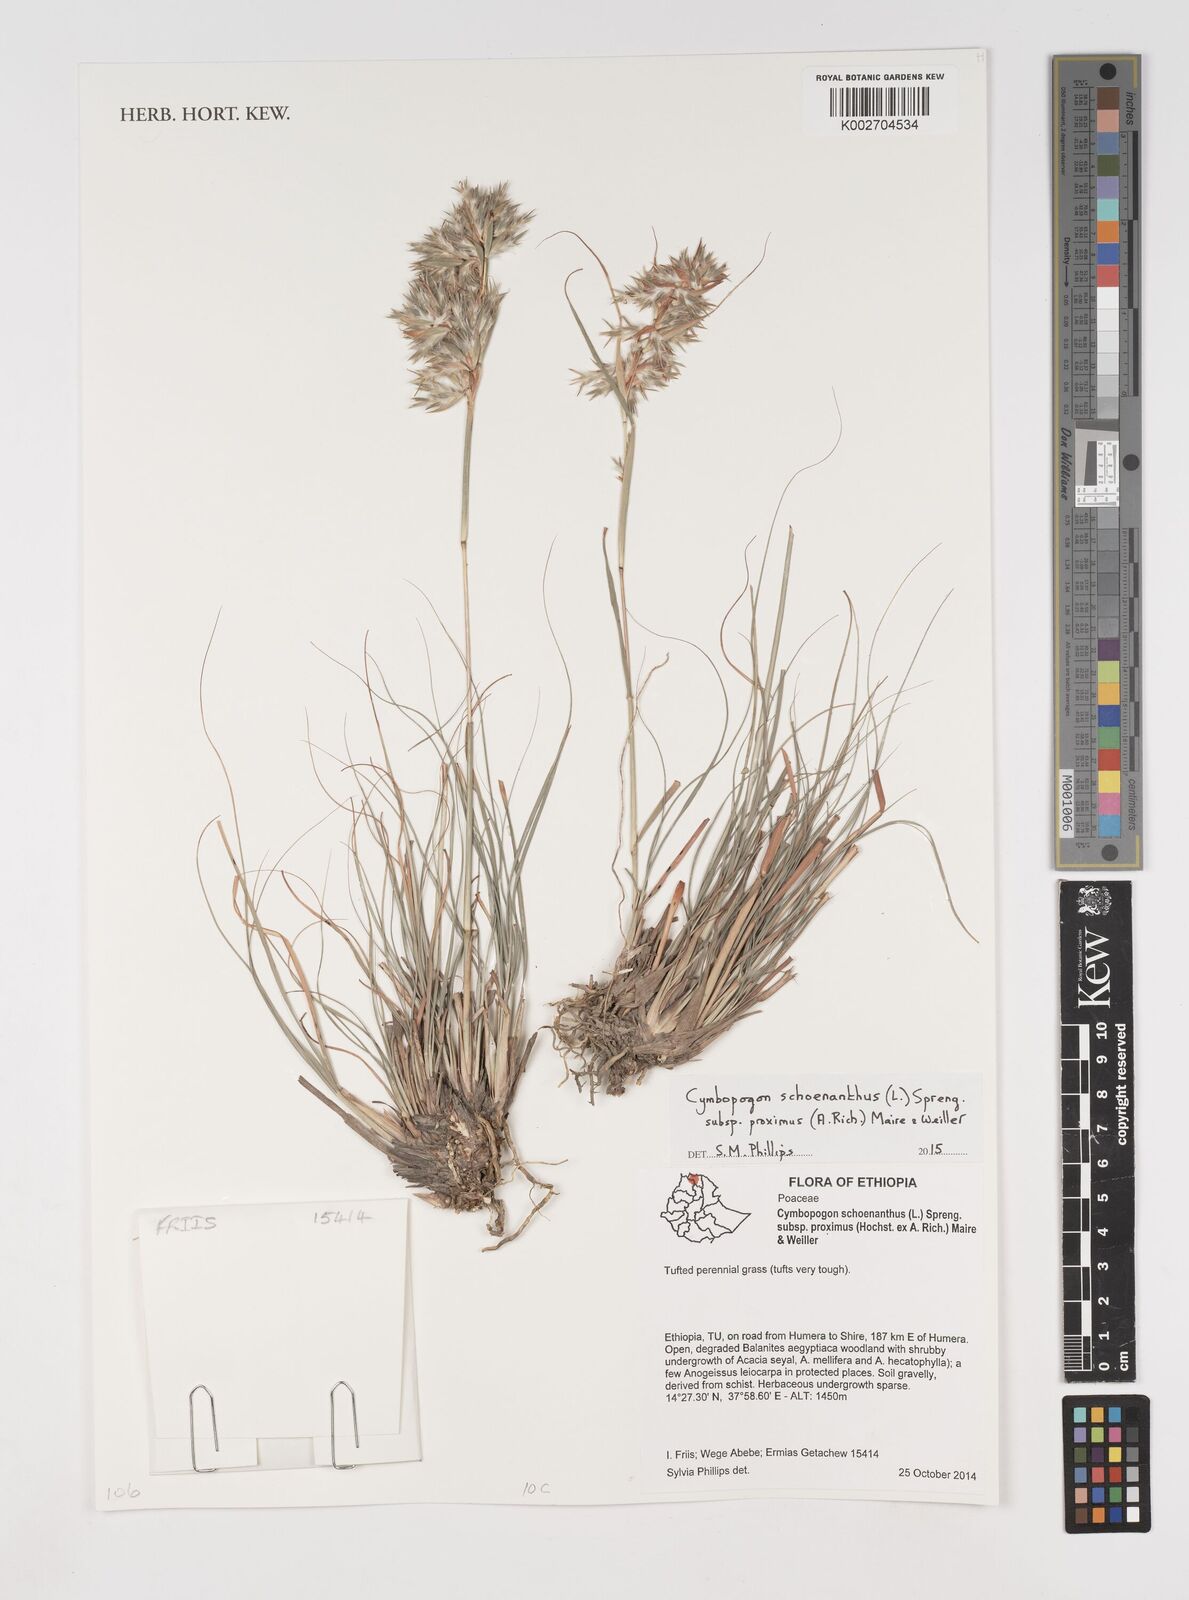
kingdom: Plantae
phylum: Tracheophyta
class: Liliopsida
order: Poales
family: Poaceae
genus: Cymbopogon
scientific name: Cymbopogon schoenanthus
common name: Geranium grass
